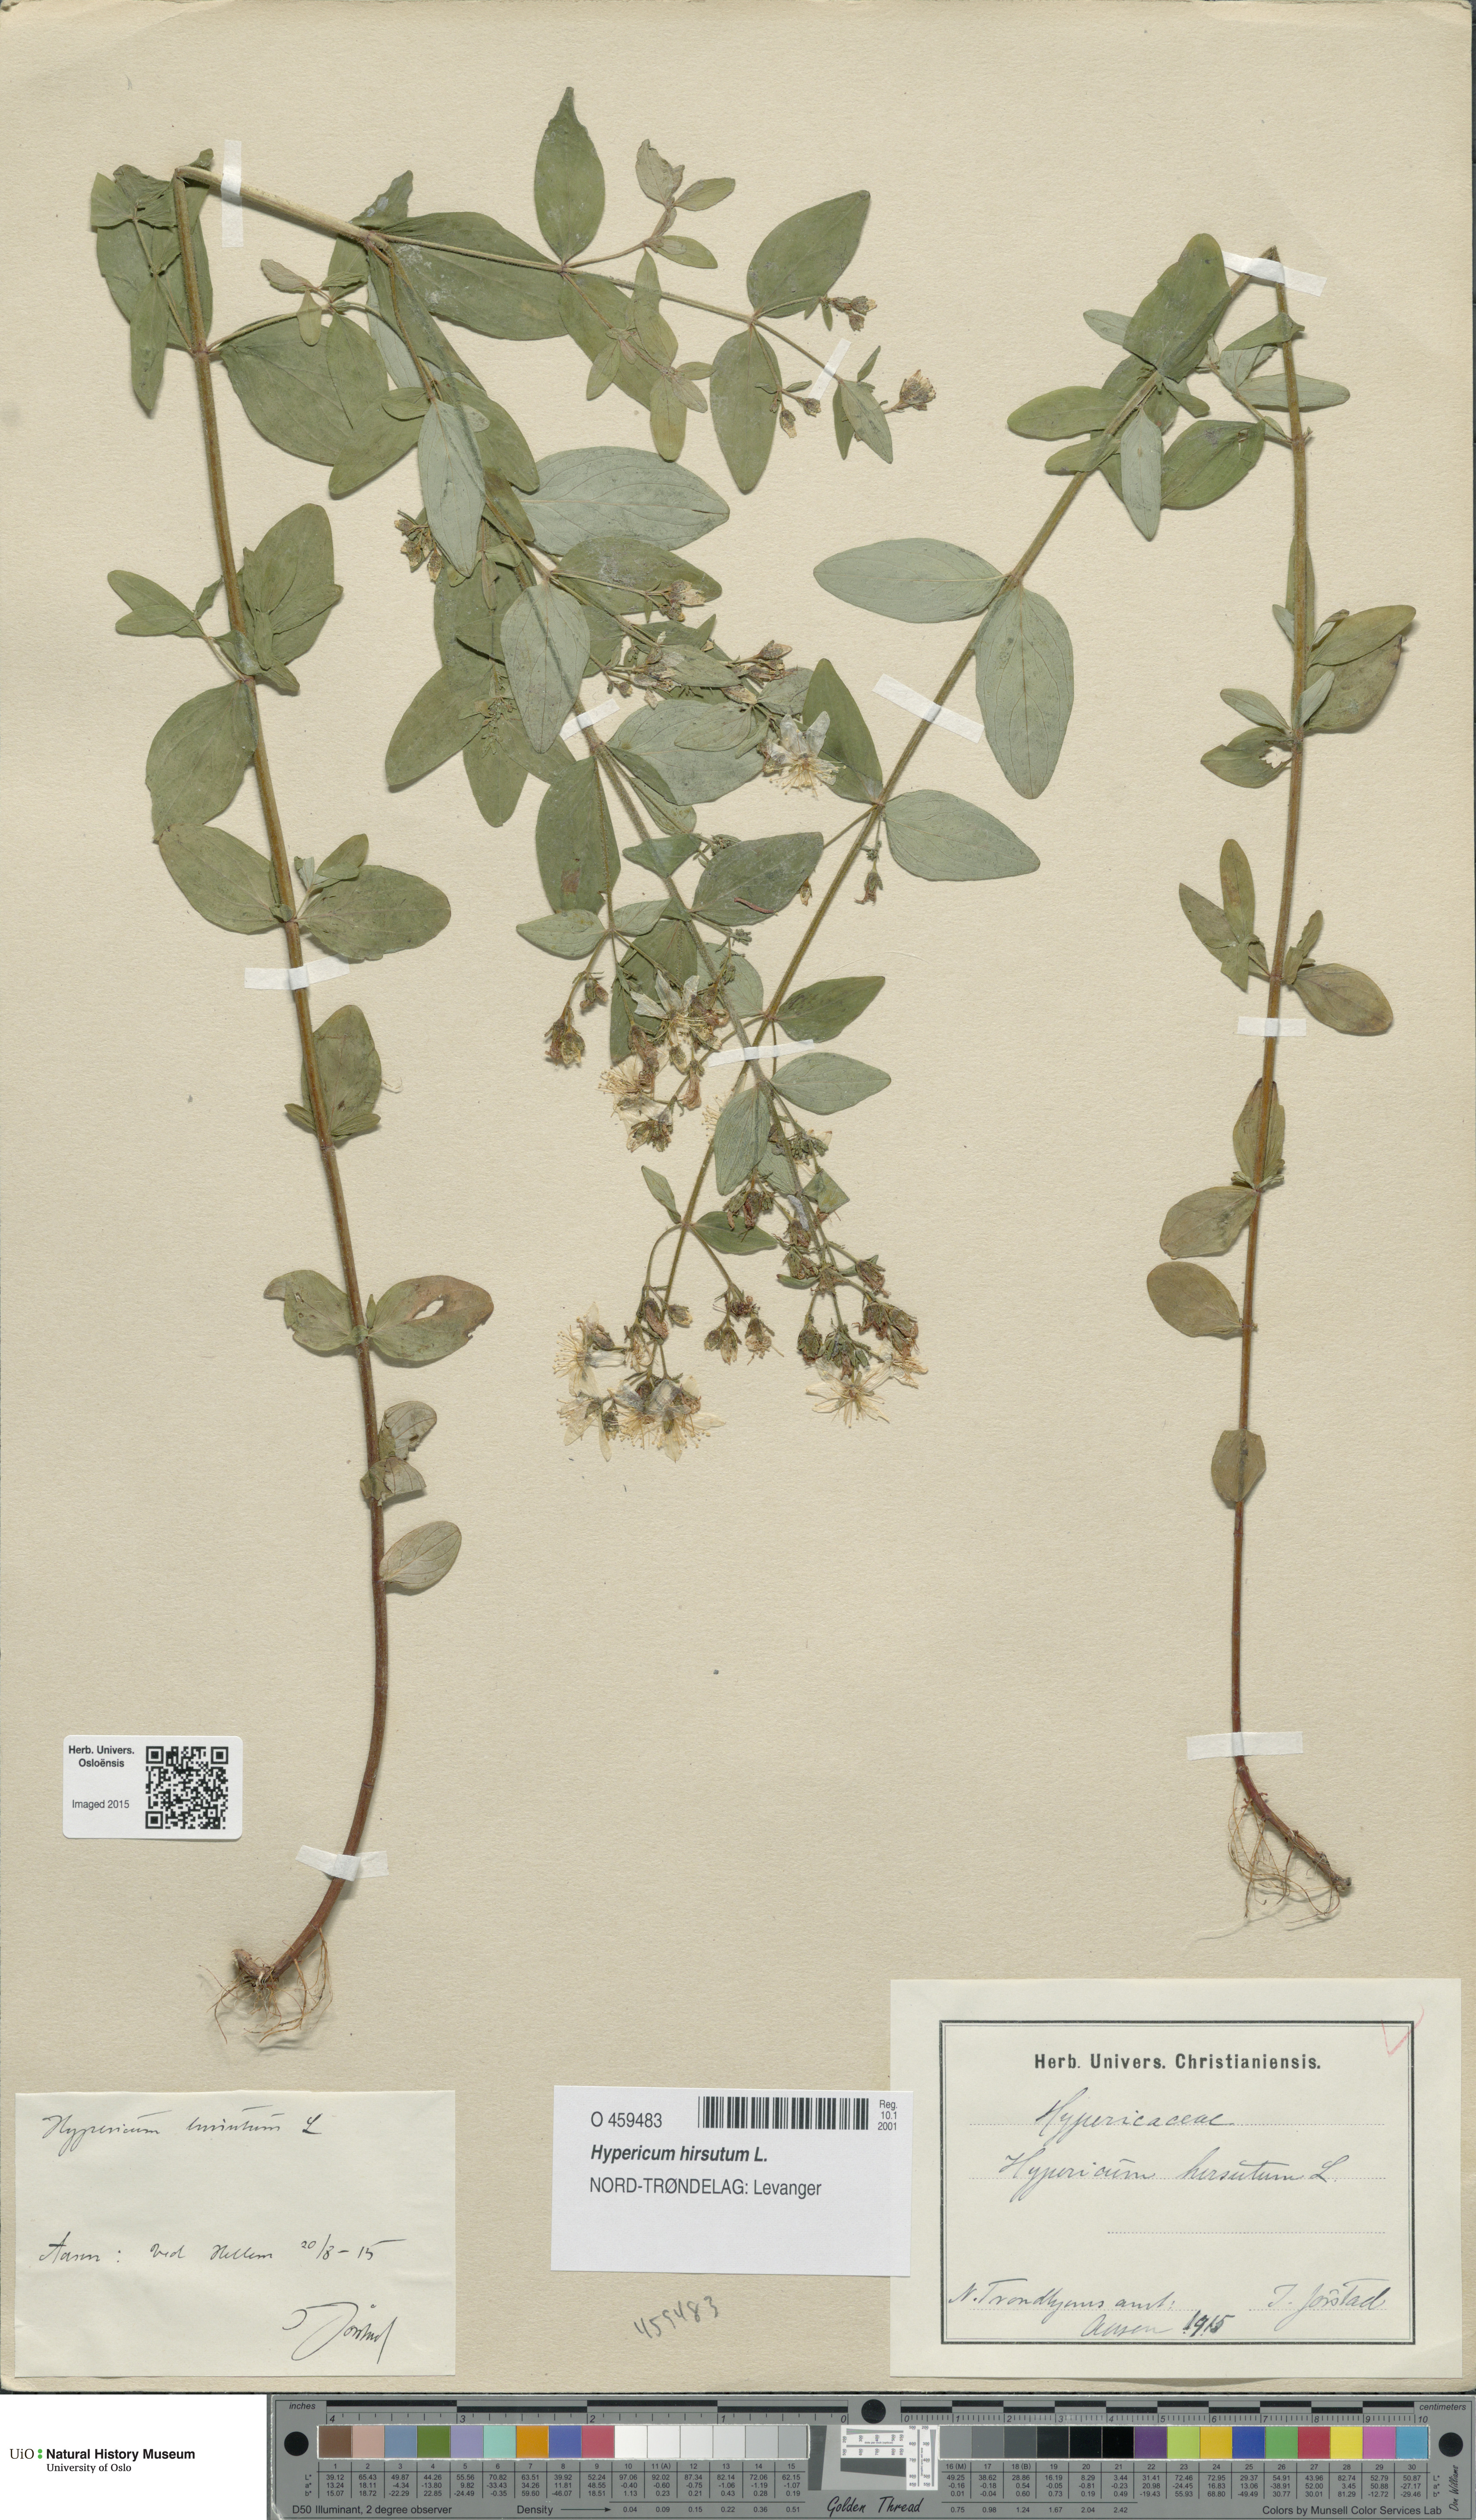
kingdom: Plantae
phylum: Tracheophyta
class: Magnoliopsida
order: Malpighiales
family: Hypericaceae
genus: Hypericum
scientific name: Hypericum hirsutum
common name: Hairy st. john's-wort
